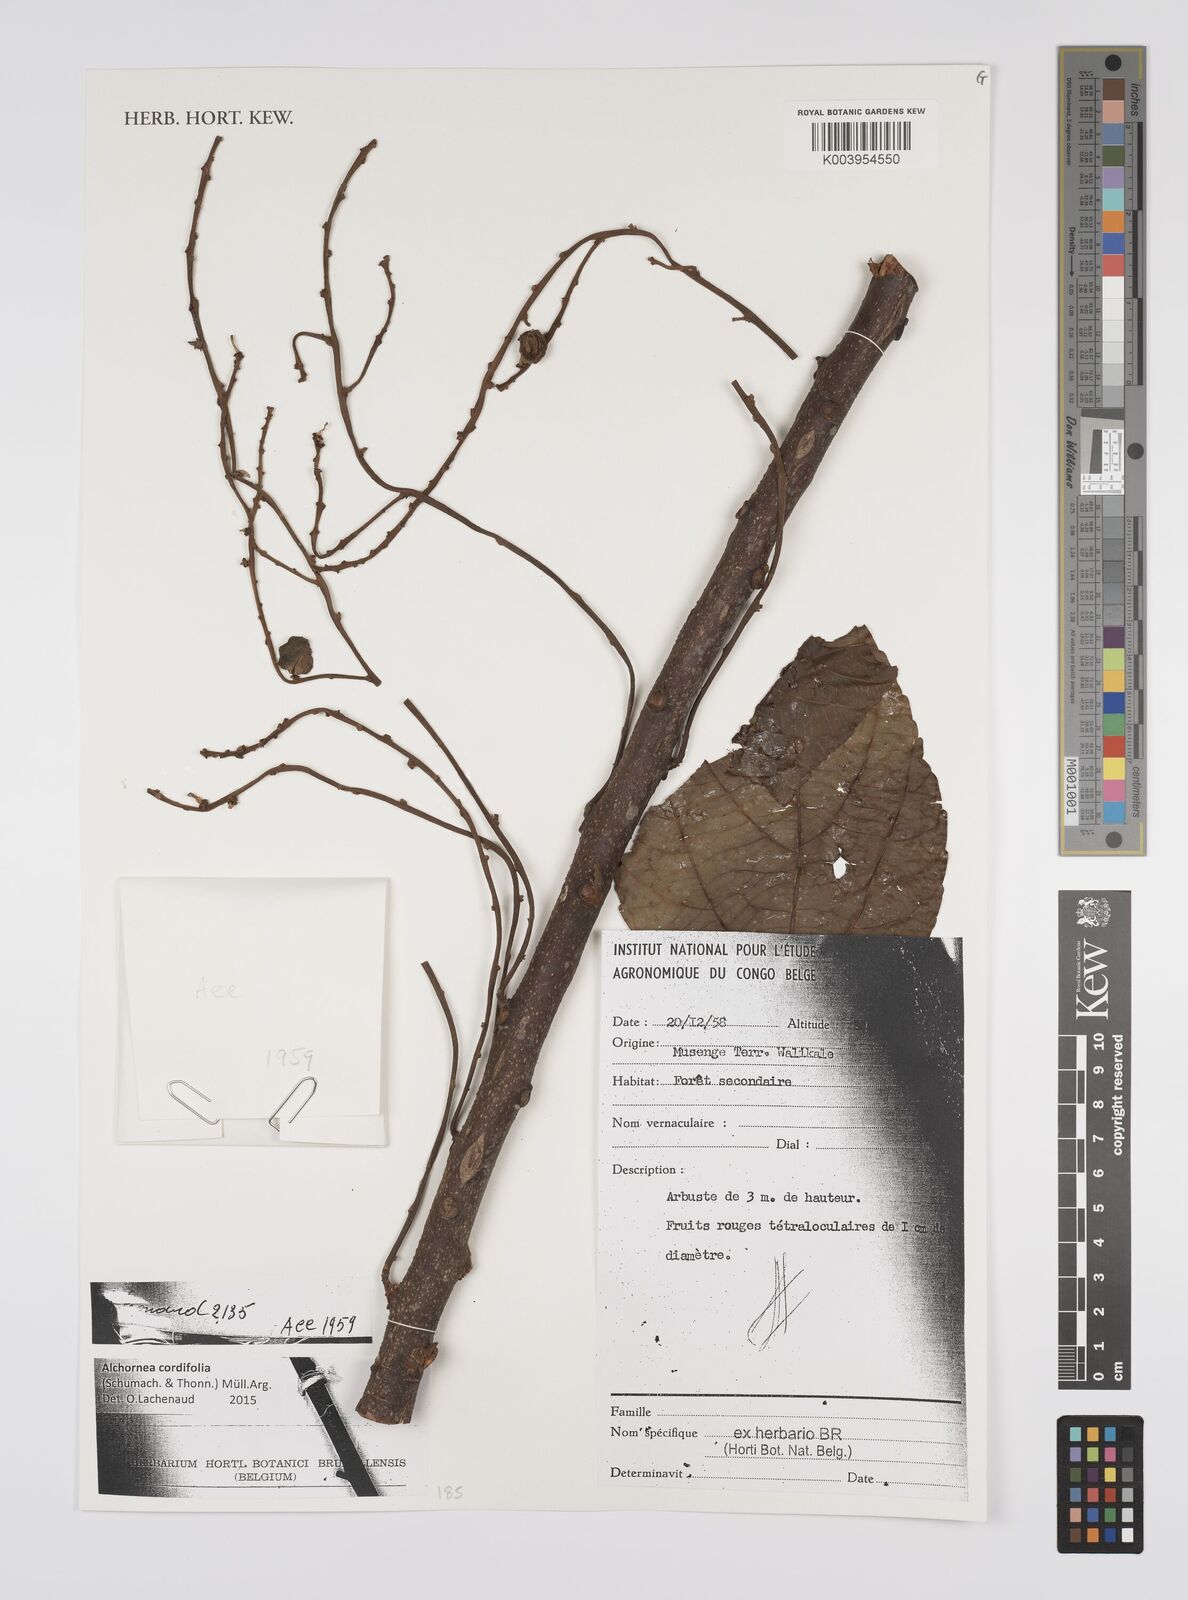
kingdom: Plantae
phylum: Tracheophyta
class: Magnoliopsida
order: Malpighiales
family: Euphorbiaceae
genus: Alchornea
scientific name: Alchornea cordifolia
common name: Christmasbush
